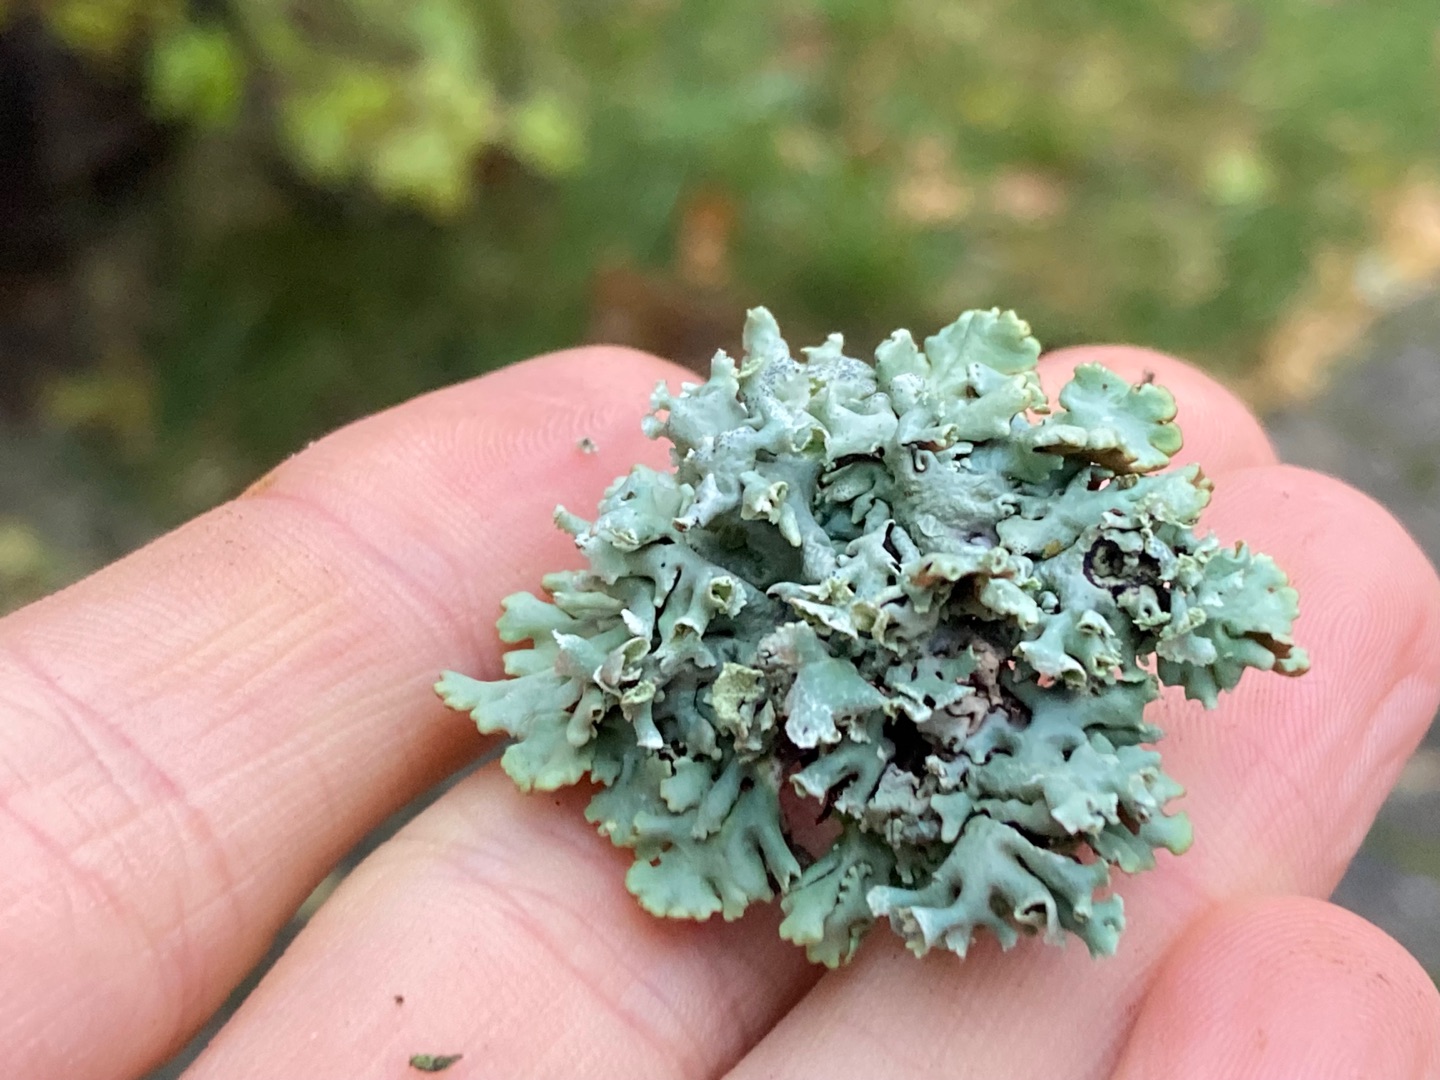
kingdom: Fungi
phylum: Ascomycota
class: Lecanoromycetes
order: Lecanorales
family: Parmeliaceae
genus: Hypogymnia
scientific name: Hypogymnia physodes
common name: Almindelig kvistlav
